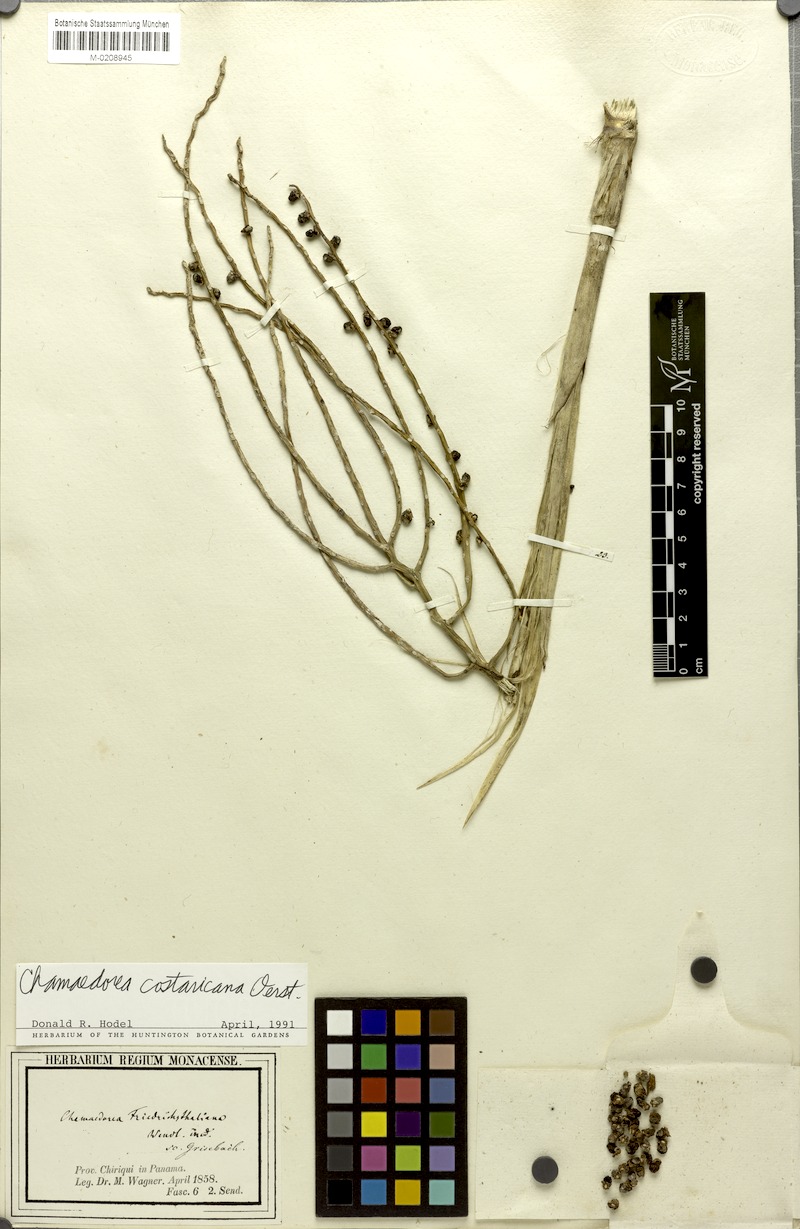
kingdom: Plantae
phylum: Tracheophyta
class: Liliopsida
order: Arecales
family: Arecaceae
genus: Chamaedorea
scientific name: Chamaedorea costaricana
